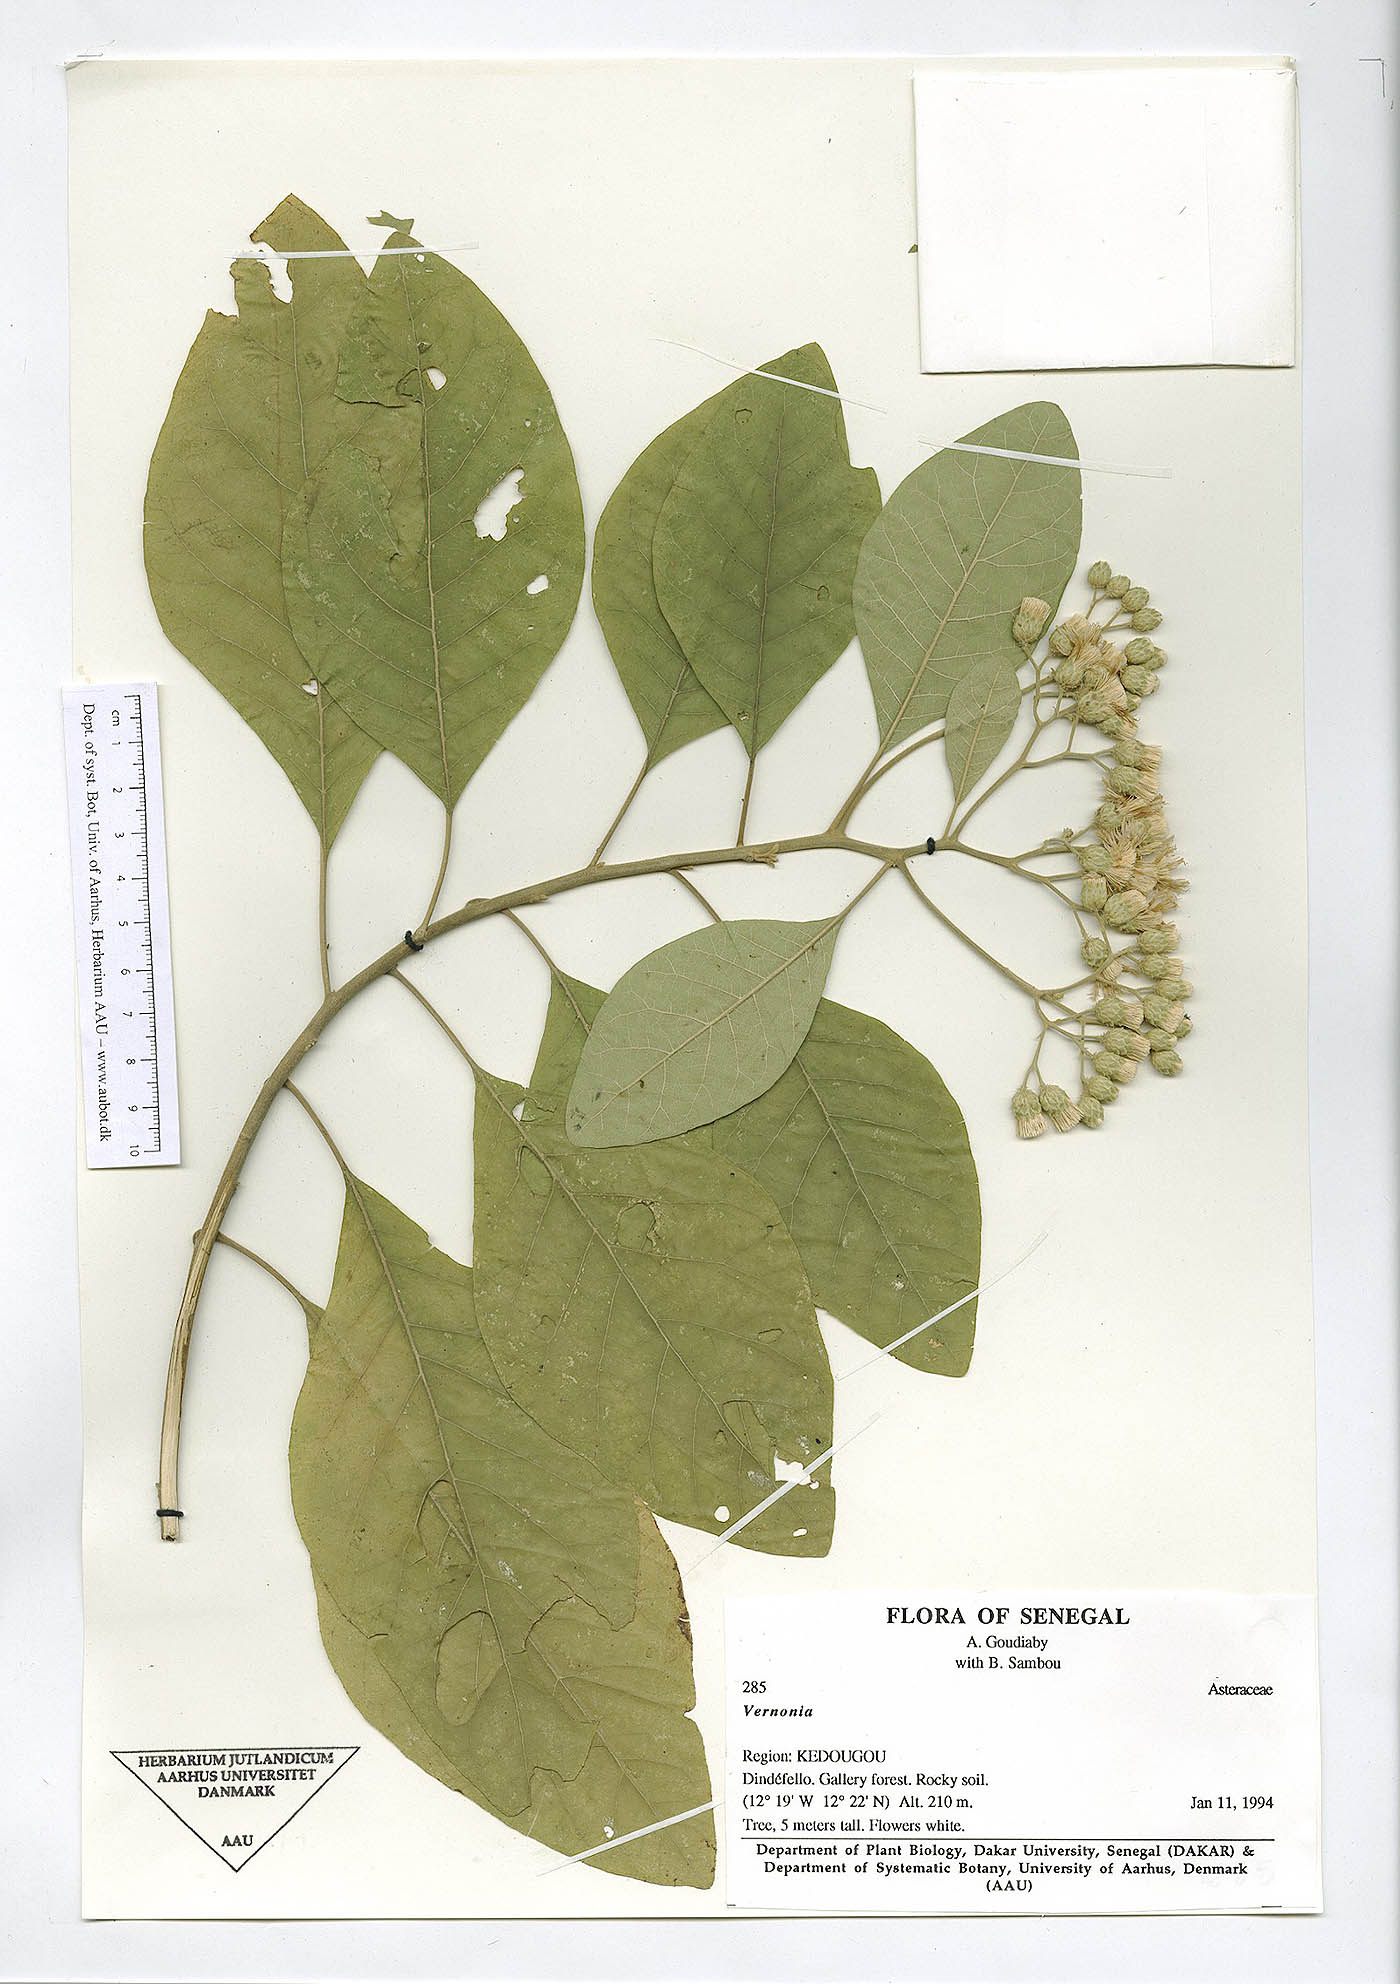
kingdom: Plantae
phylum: Tracheophyta
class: Magnoliopsida
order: Asterales
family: Asteraceae
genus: Vernonia
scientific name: Vernonia
